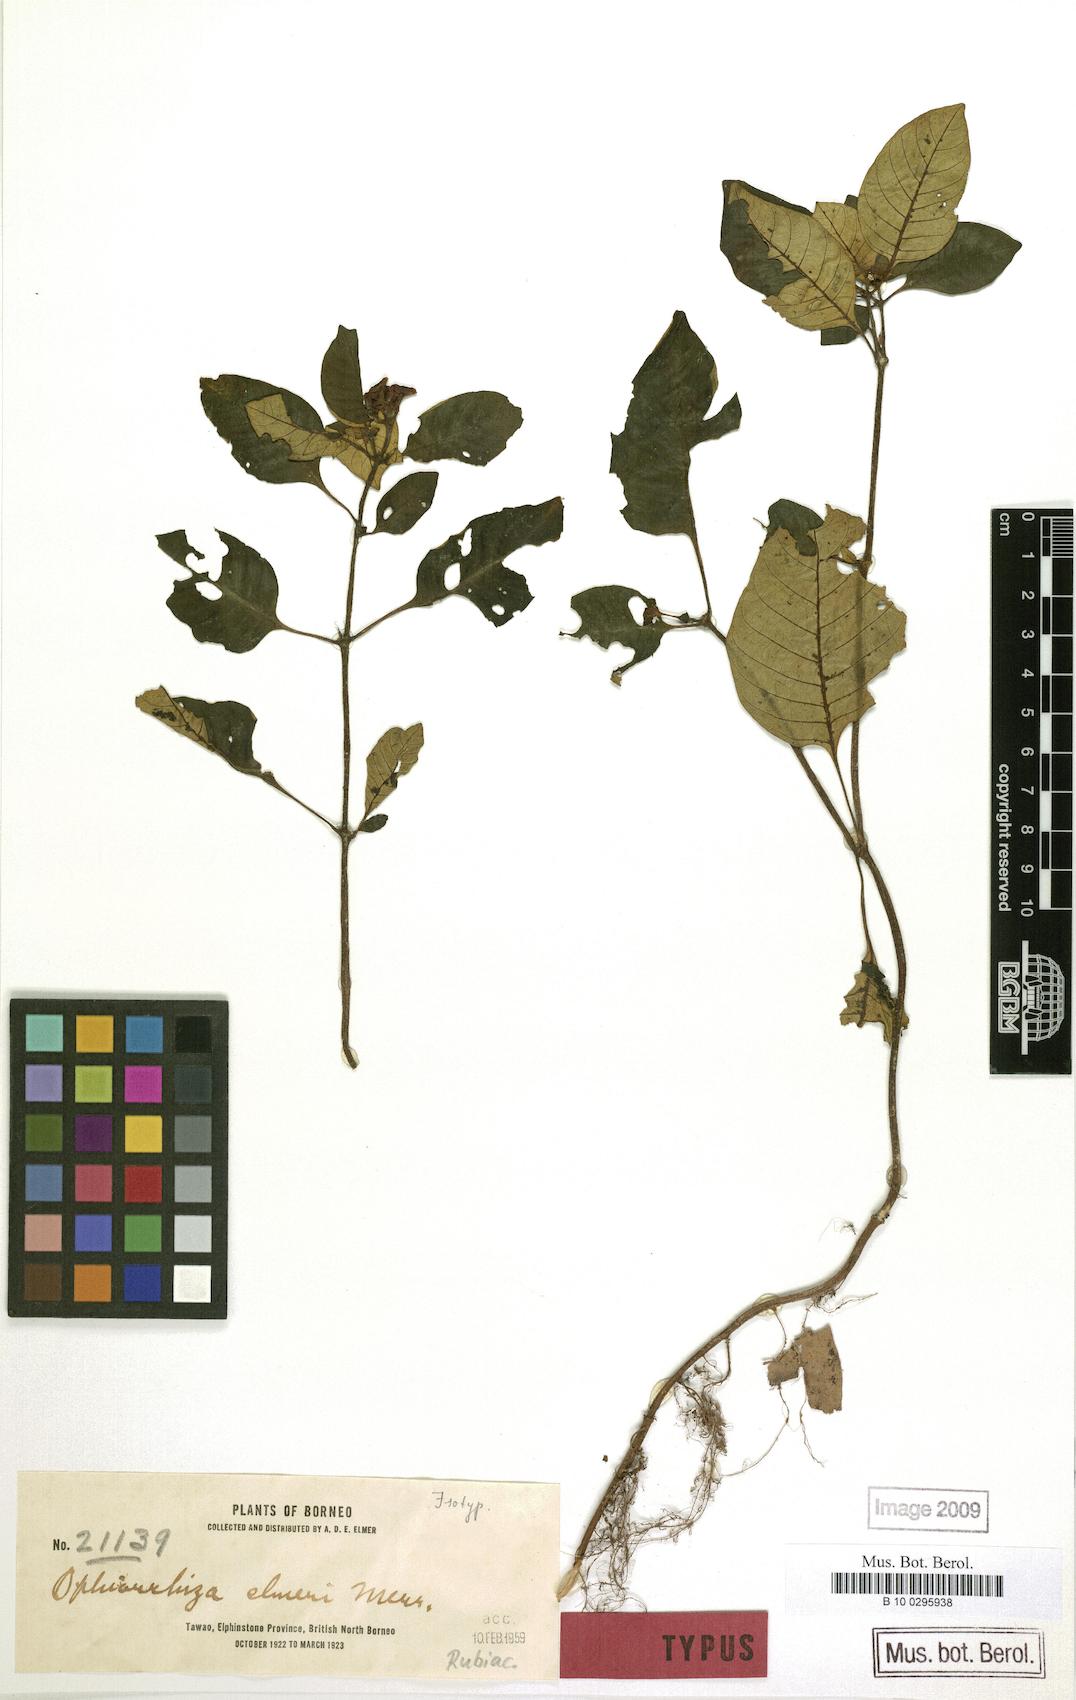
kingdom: Plantae
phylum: Tracheophyta
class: Magnoliopsida
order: Gentianales
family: Rubiaceae
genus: Ophiorrhiza
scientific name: Ophiorrhiza elmeri
